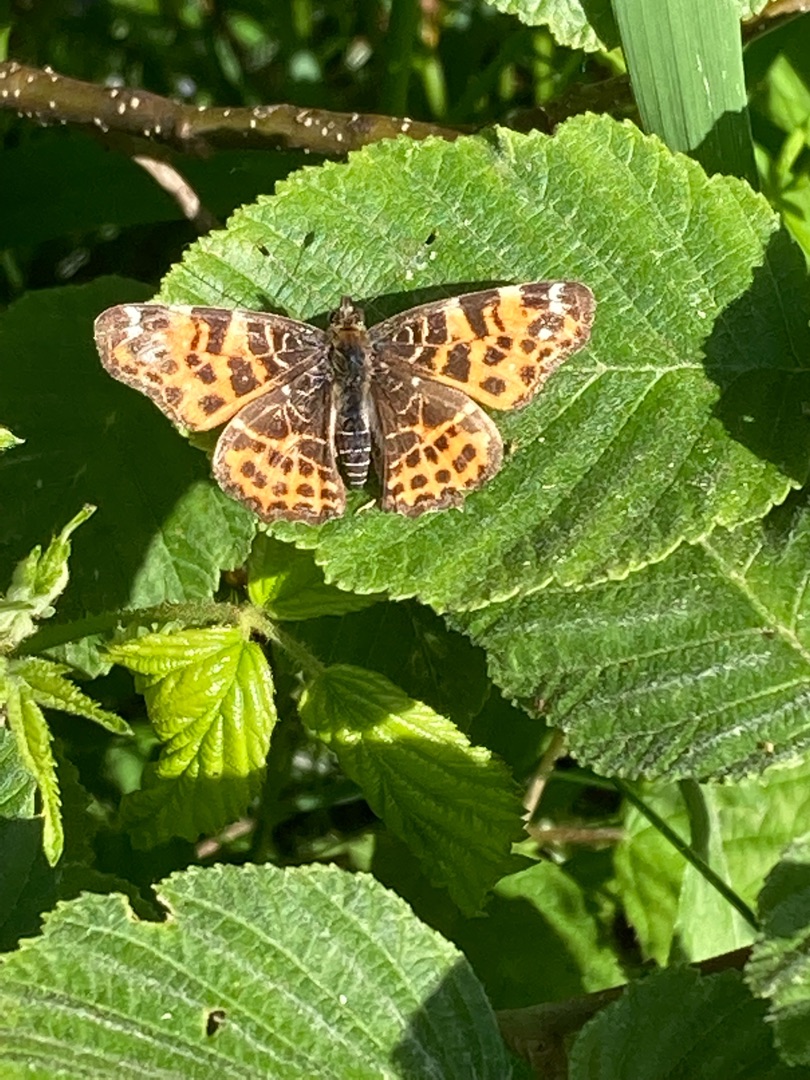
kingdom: Animalia
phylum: Arthropoda
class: Insecta
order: Lepidoptera
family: Nymphalidae
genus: Araschnia
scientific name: Araschnia levana
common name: Nældesommerfugl
